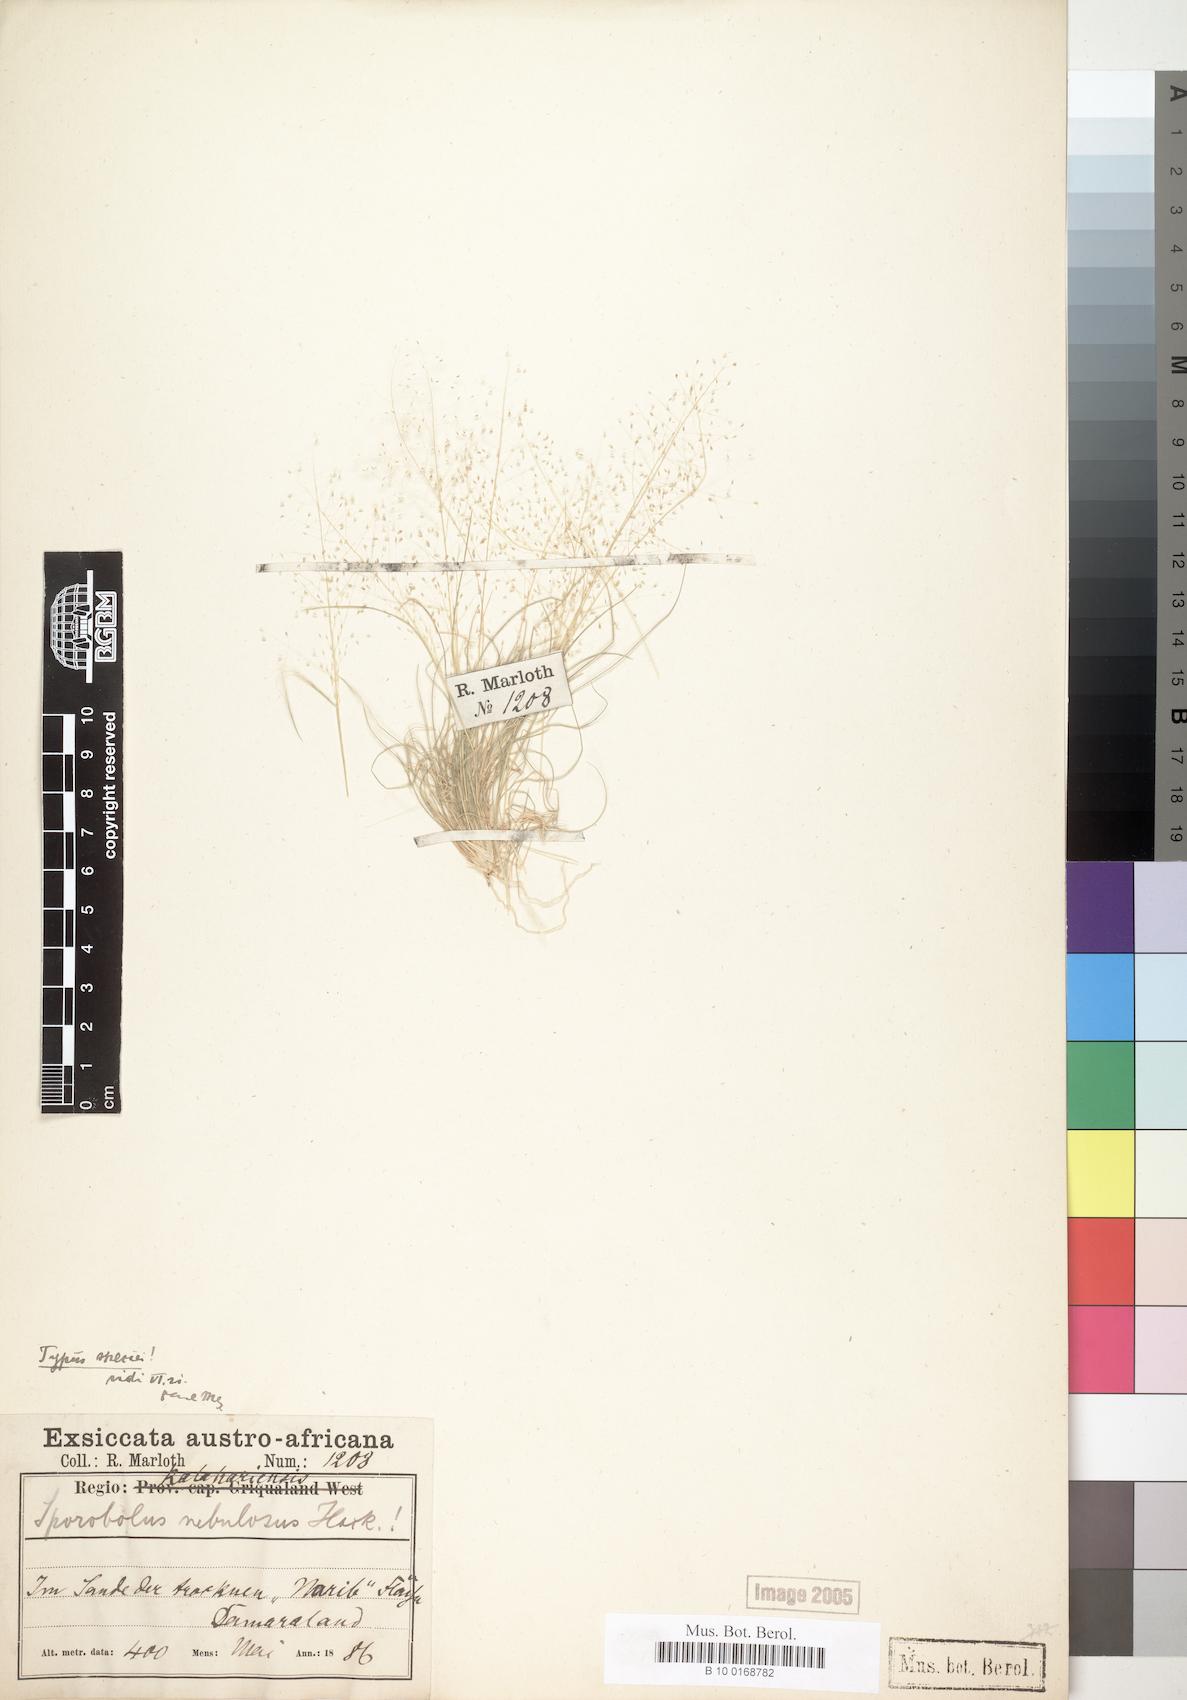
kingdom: Plantae
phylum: Tracheophyta
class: Liliopsida
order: Poales
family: Poaceae
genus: Sporobolus
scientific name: Sporobolus nebulosus
